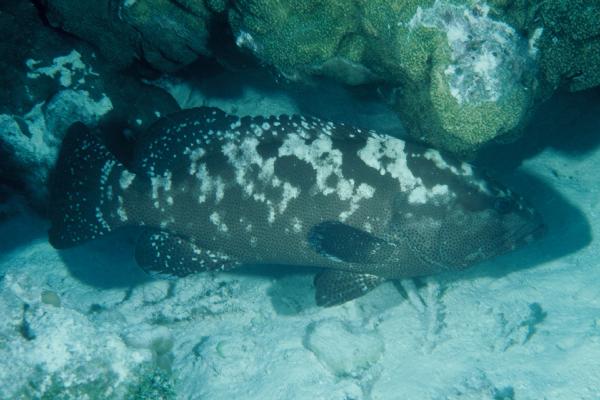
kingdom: Animalia
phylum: Chordata
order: Perciformes
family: Serranidae
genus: Epinephelus
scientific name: Epinephelus polyphekadion
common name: Camouflage grouper
